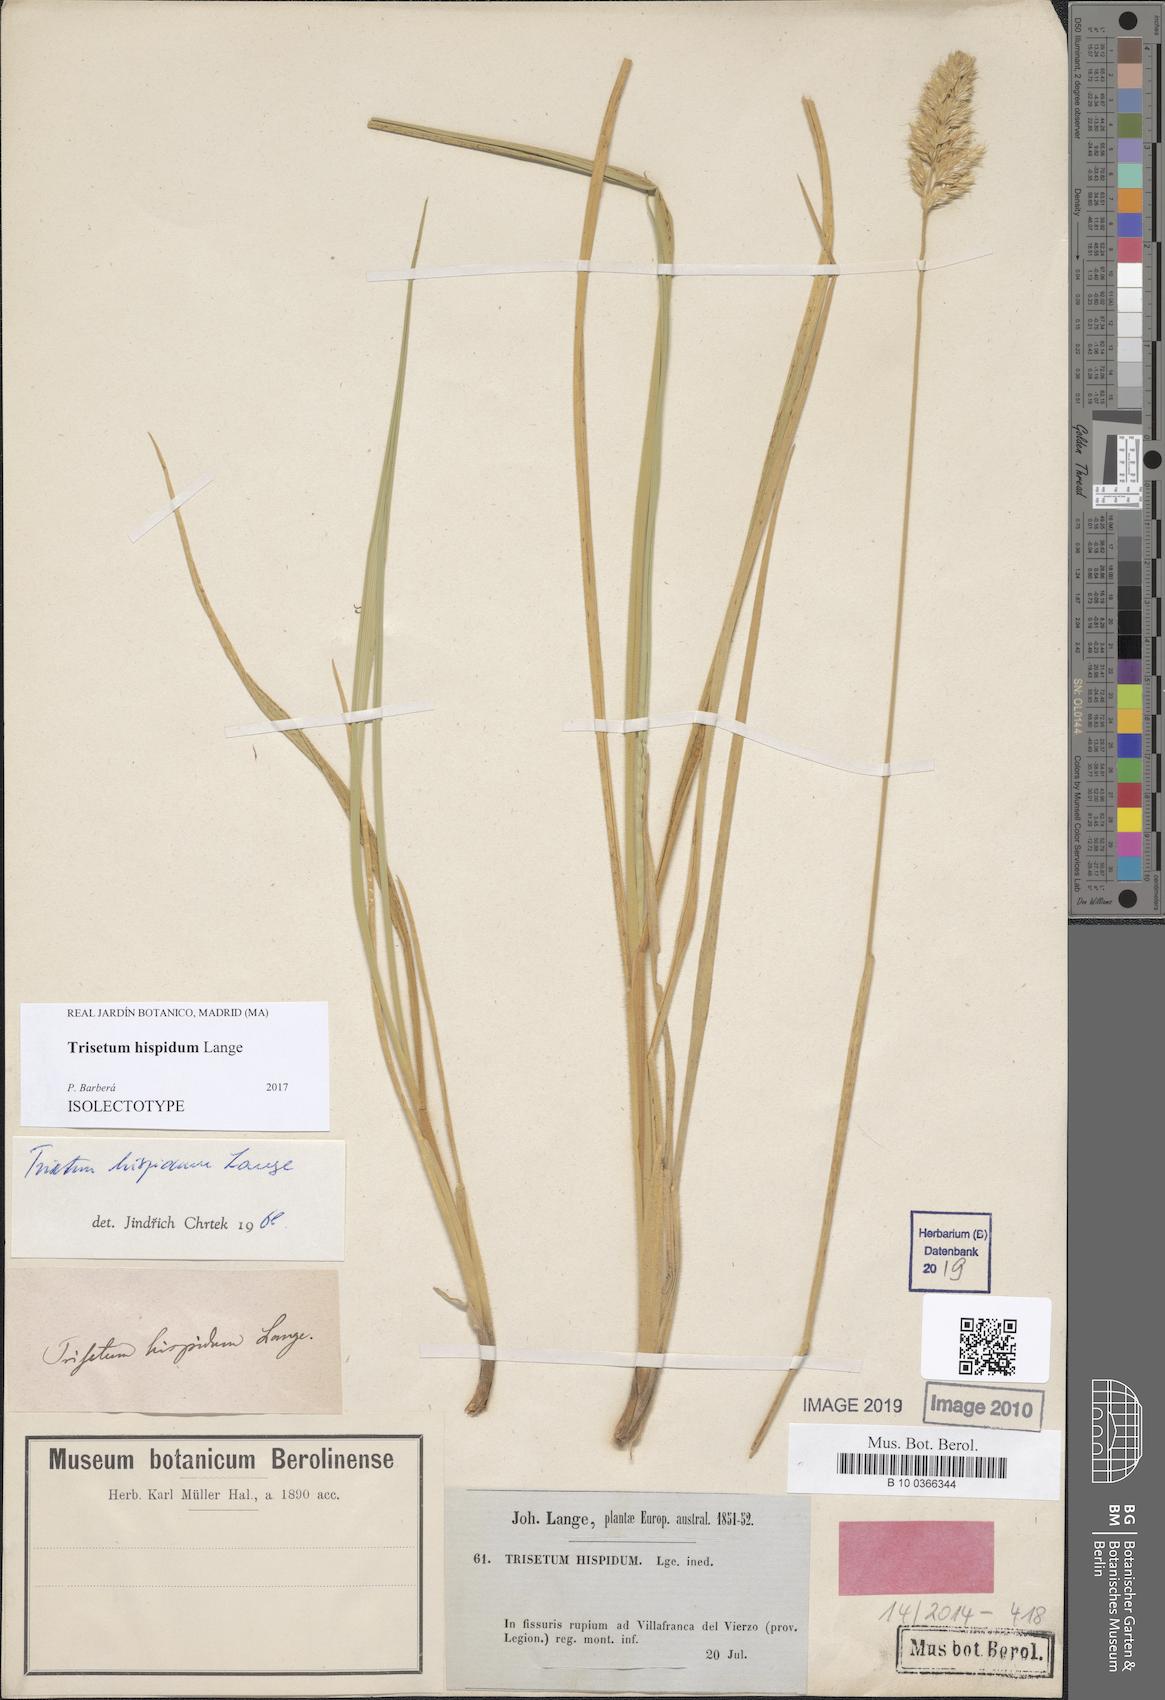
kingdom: Plantae
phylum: Tracheophyta
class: Liliopsida
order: Poales
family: Poaceae
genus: Koeleria
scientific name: Koeleria hispanica
